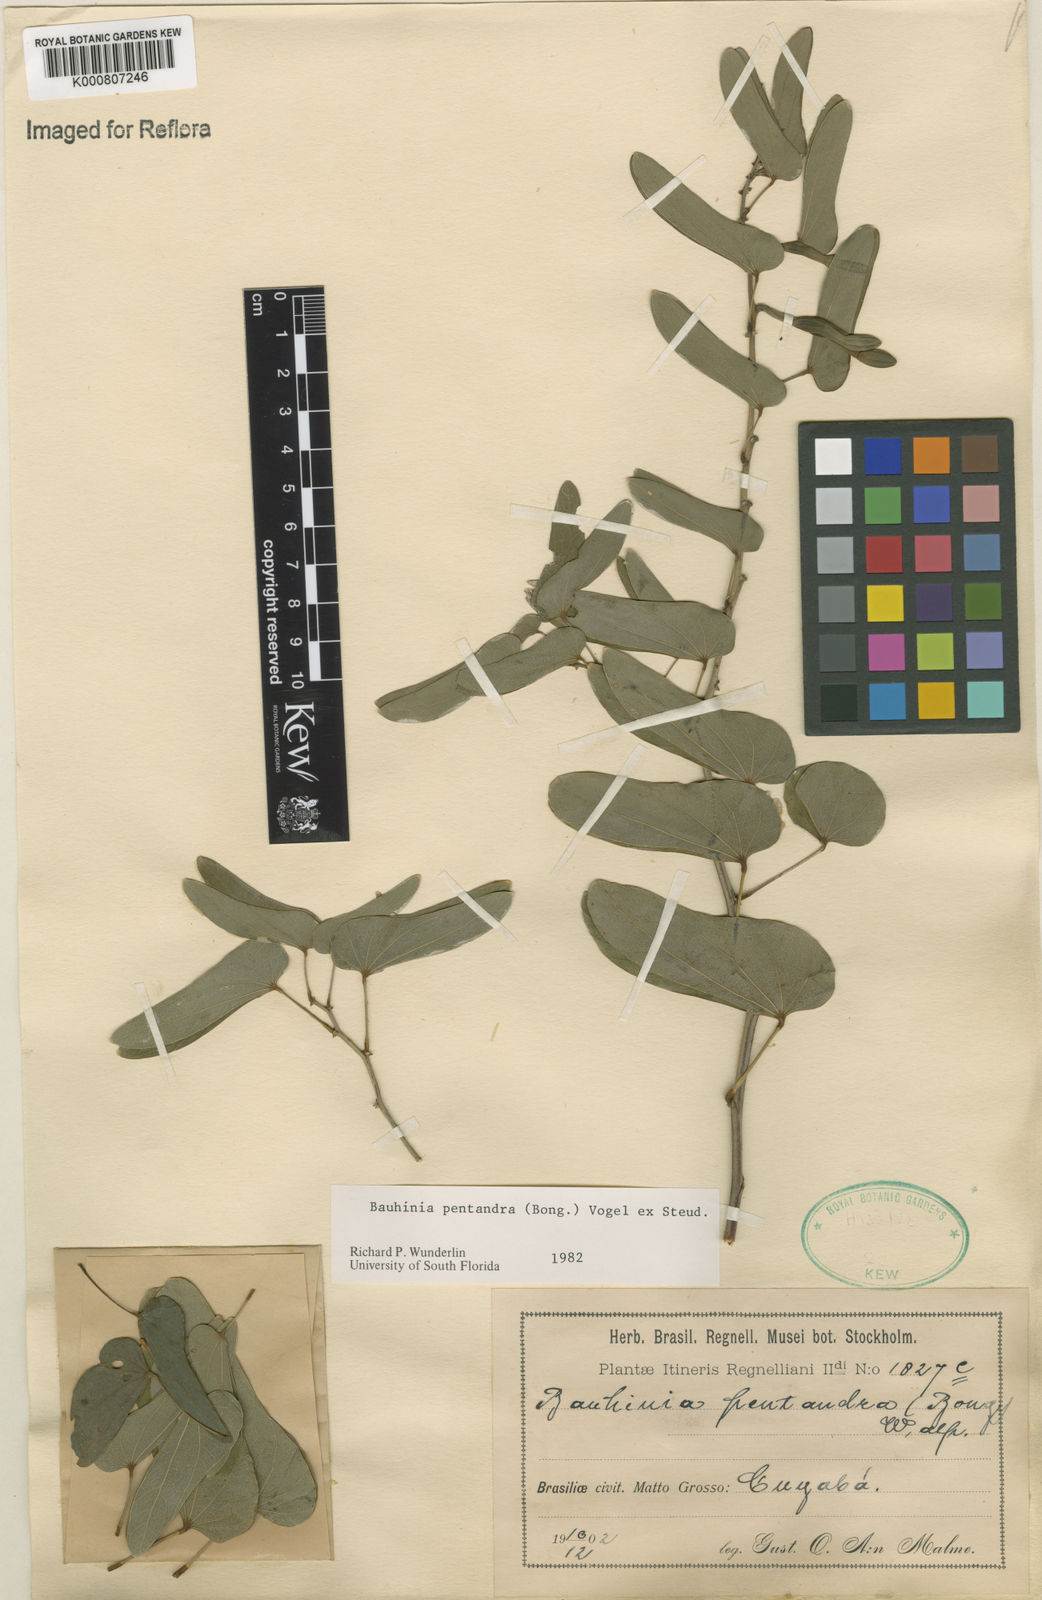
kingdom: Plantae
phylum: Tracheophyta
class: Magnoliopsida
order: Fabales
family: Fabaceae
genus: Bauhinia
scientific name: Bauhinia
